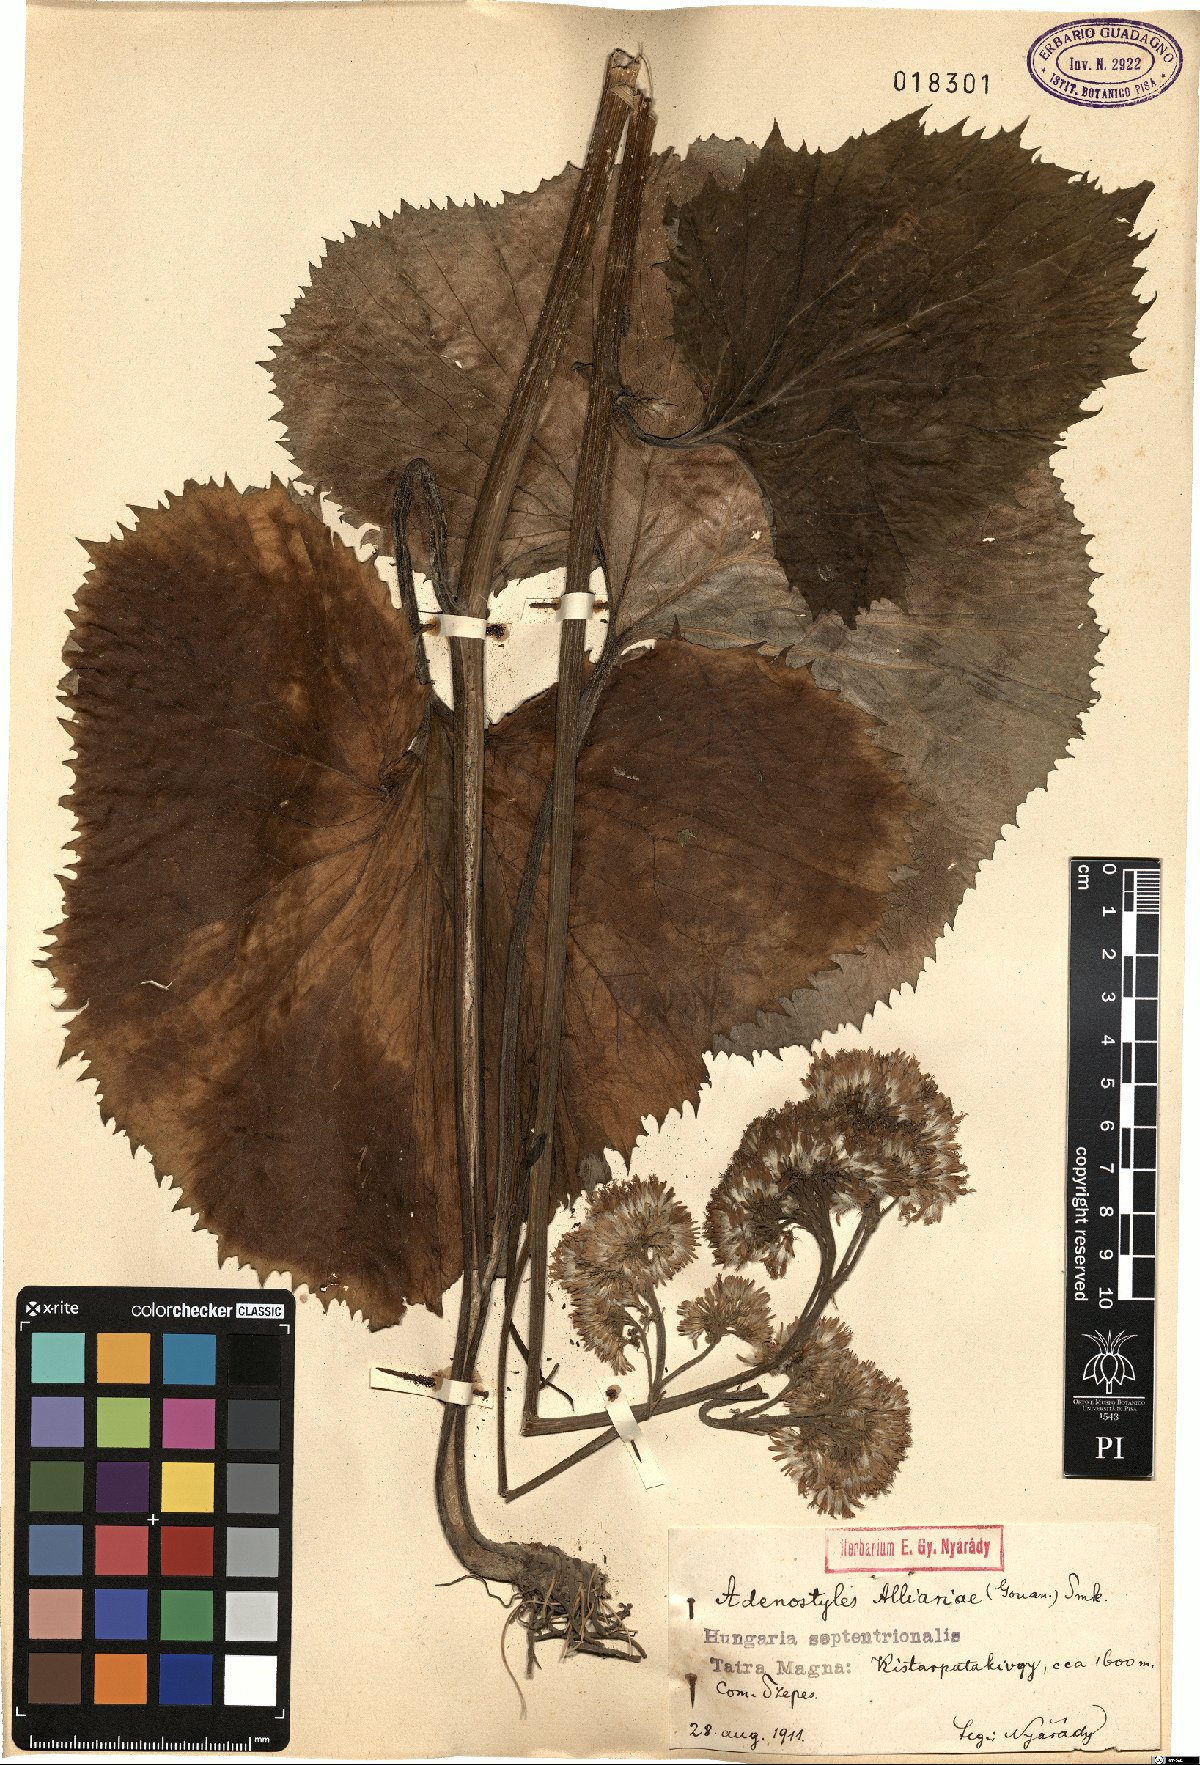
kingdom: Plantae
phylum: Tracheophyta
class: Magnoliopsida
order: Asterales
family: Asteraceae
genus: Adenostyles
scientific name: Adenostyles alliariae
